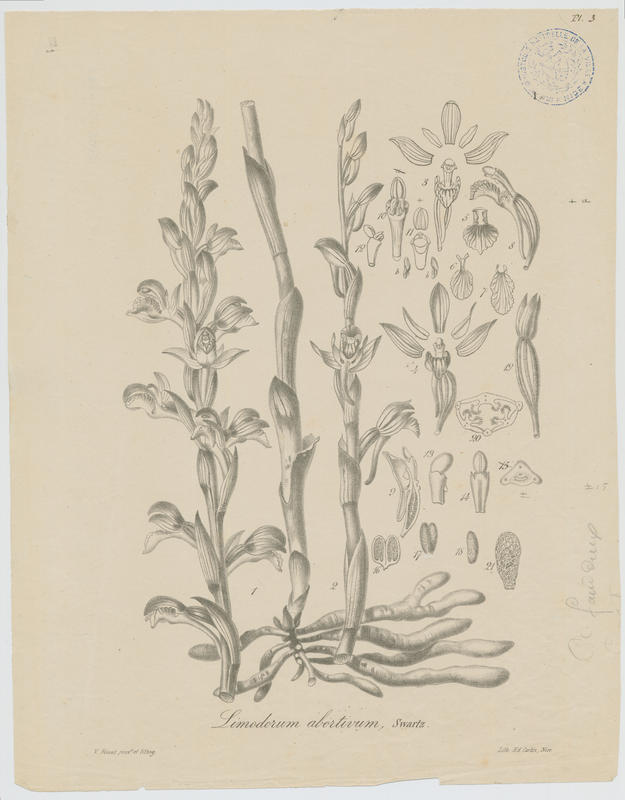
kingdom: Plantae
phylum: Tracheophyta
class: Liliopsida
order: Asparagales
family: Orchidaceae
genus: Limodorum
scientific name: Limodorum abortivum
